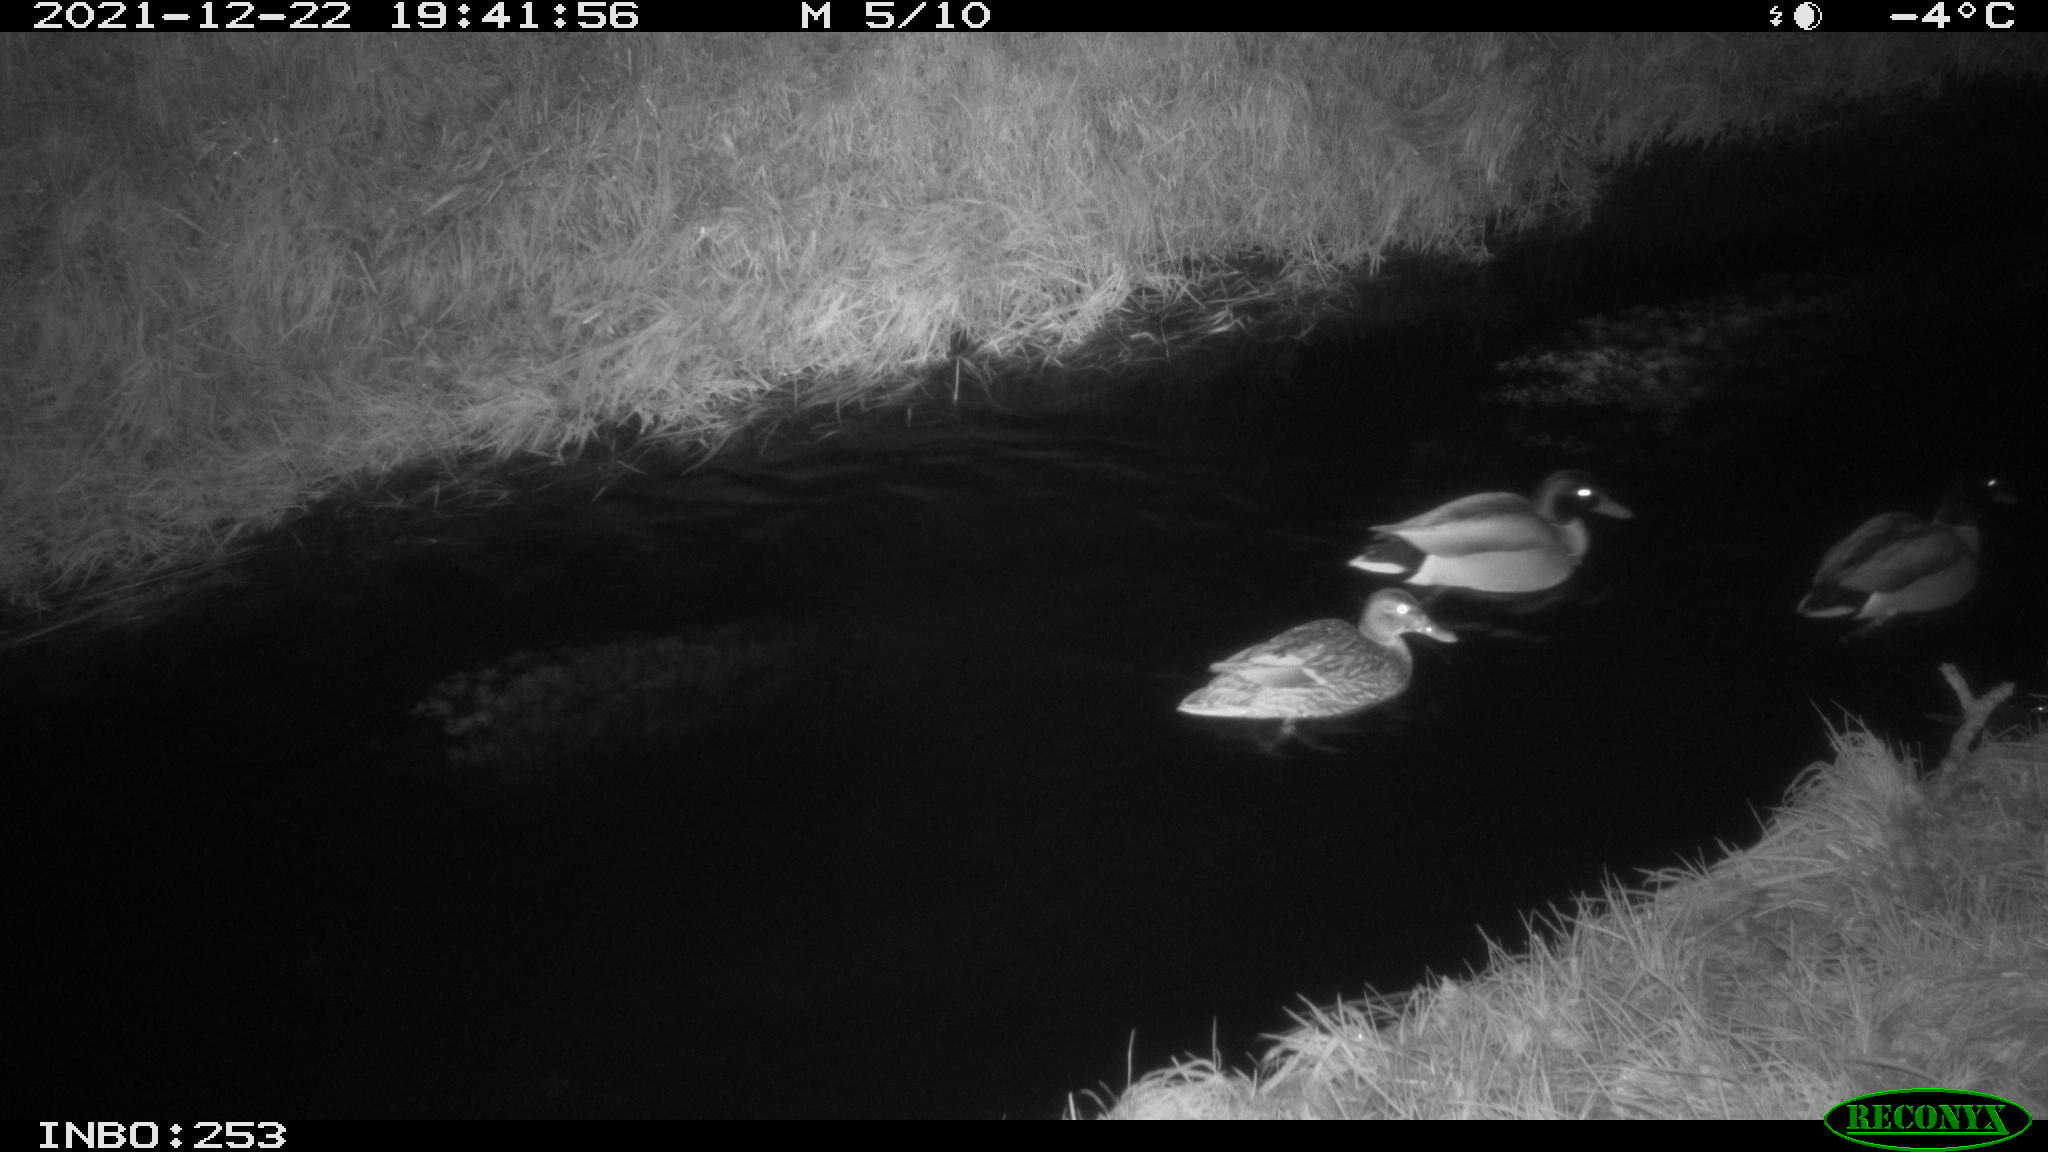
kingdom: Animalia
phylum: Chordata
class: Aves
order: Anseriformes
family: Anatidae
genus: Anas
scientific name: Anas
